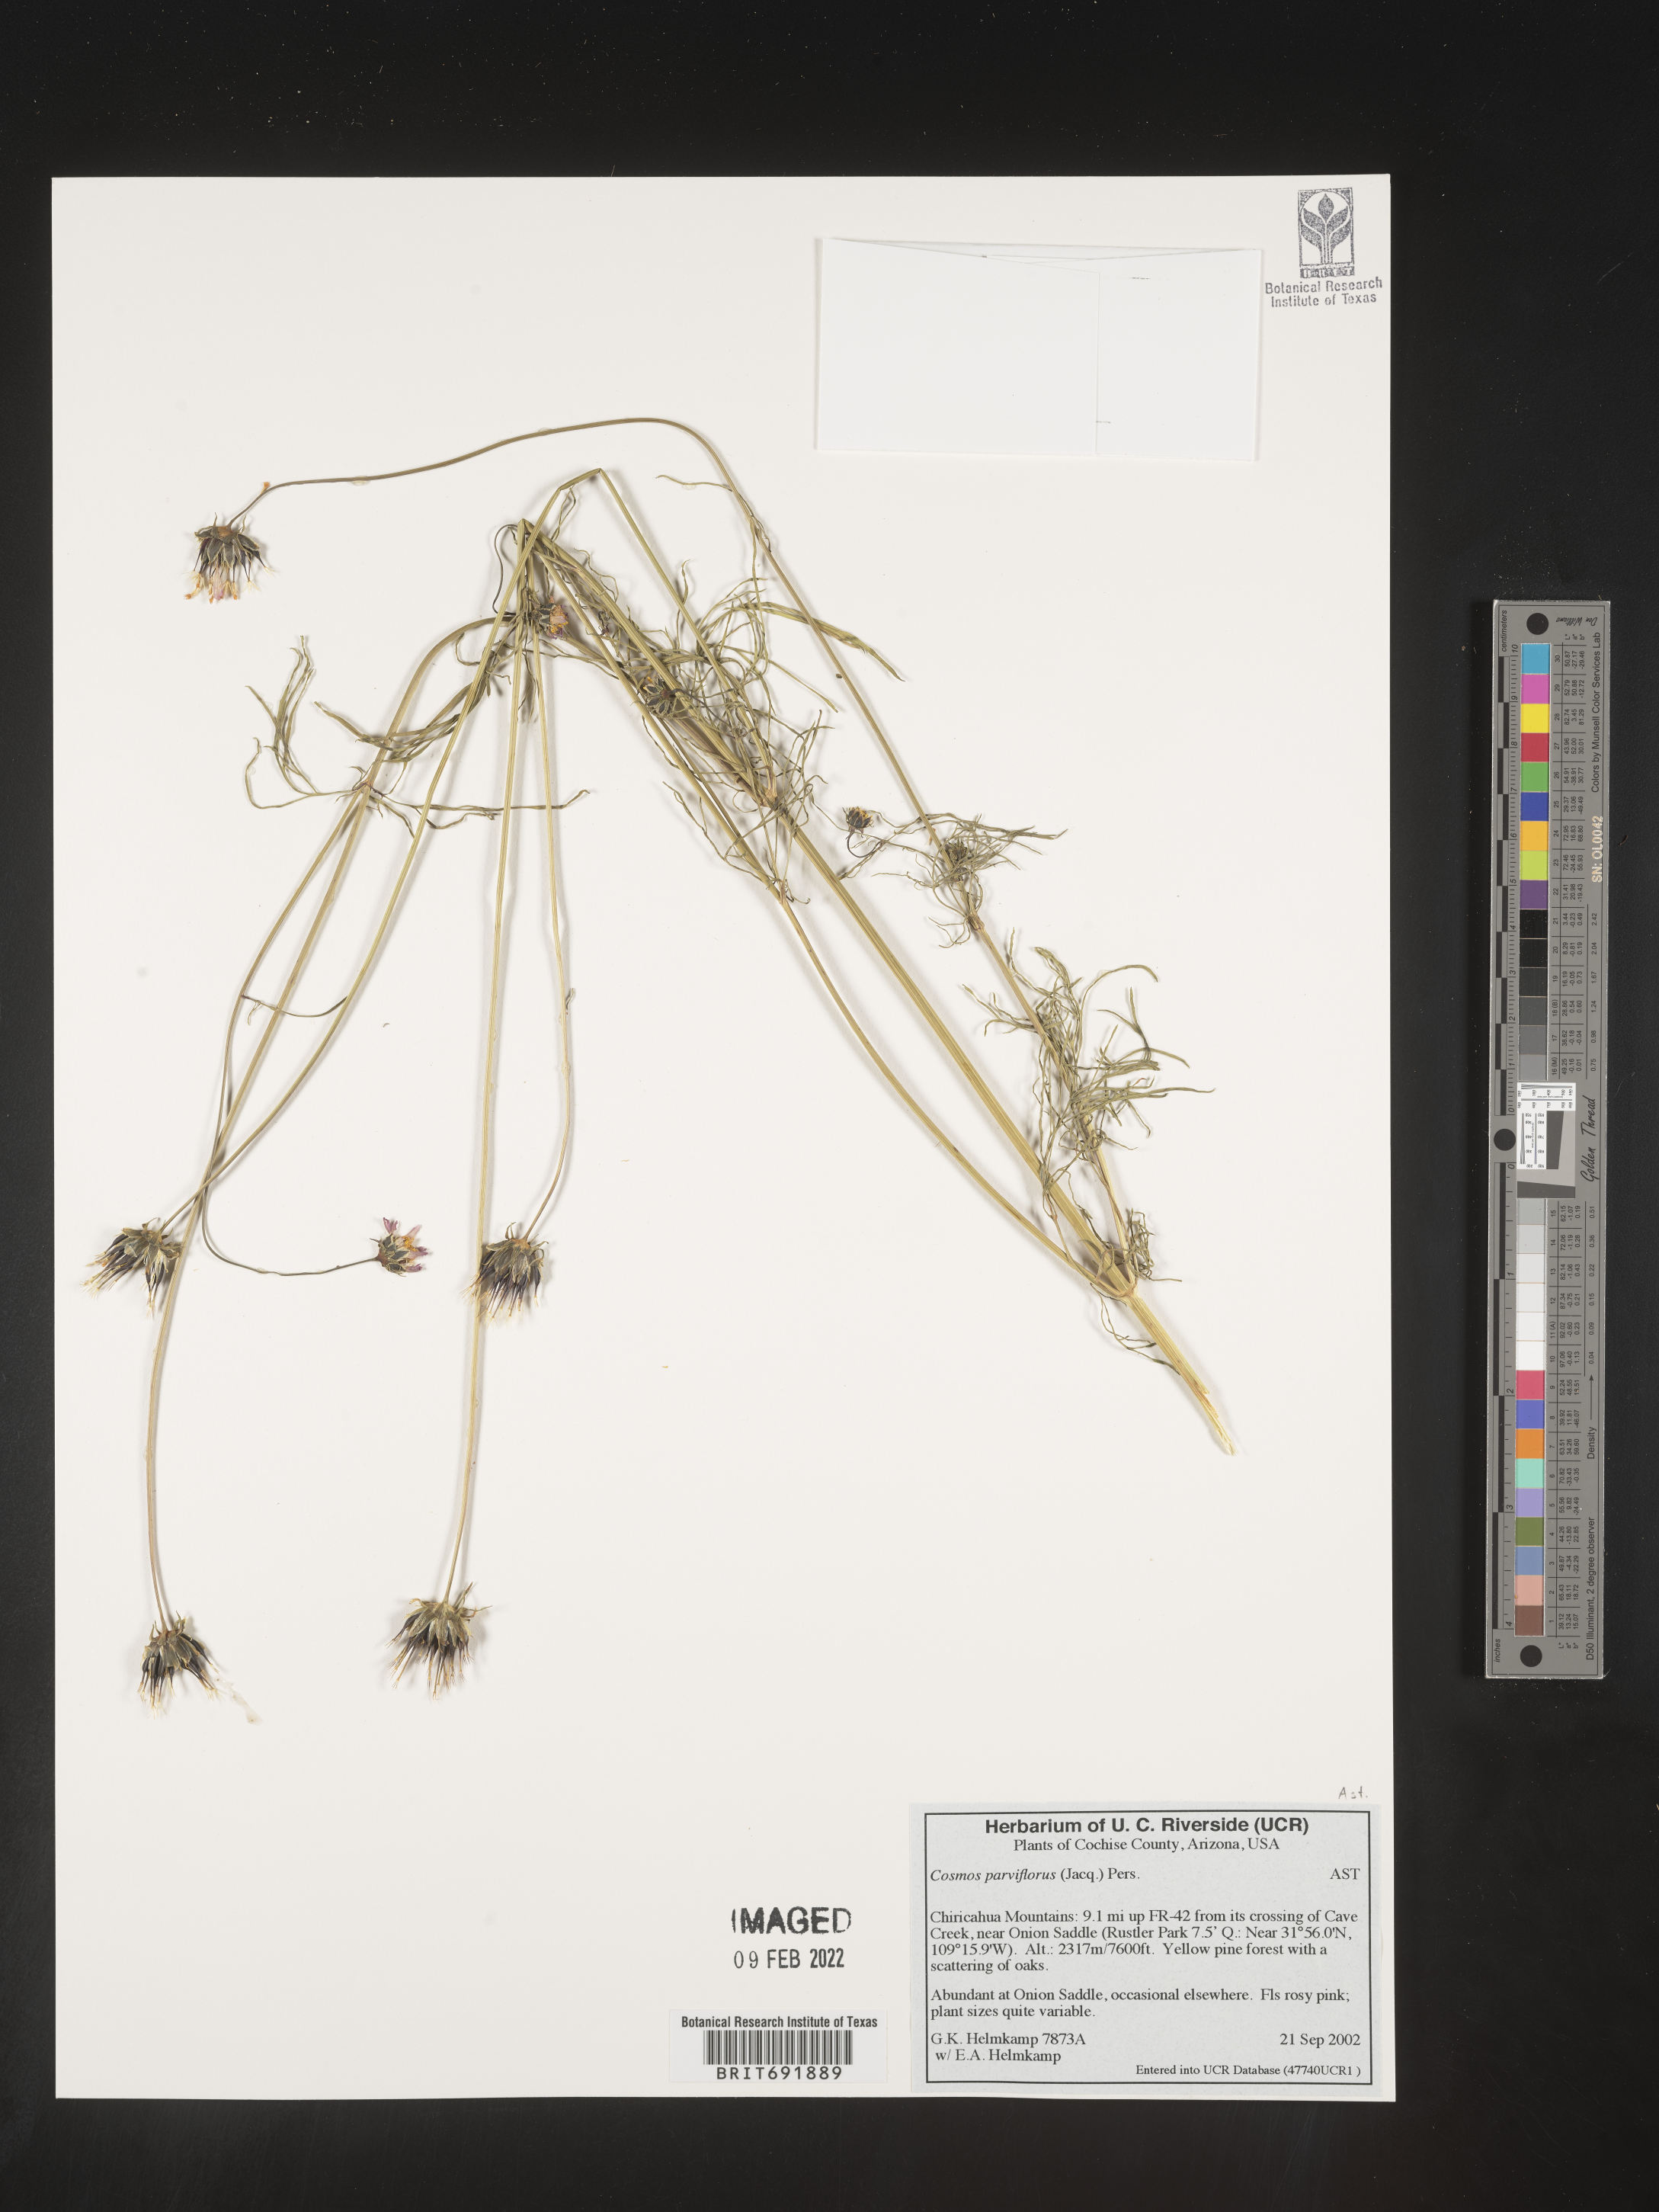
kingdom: Plantae
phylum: Tracheophyta
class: Magnoliopsida
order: Asterales
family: Asteraceae
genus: Cosmos
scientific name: Cosmos
